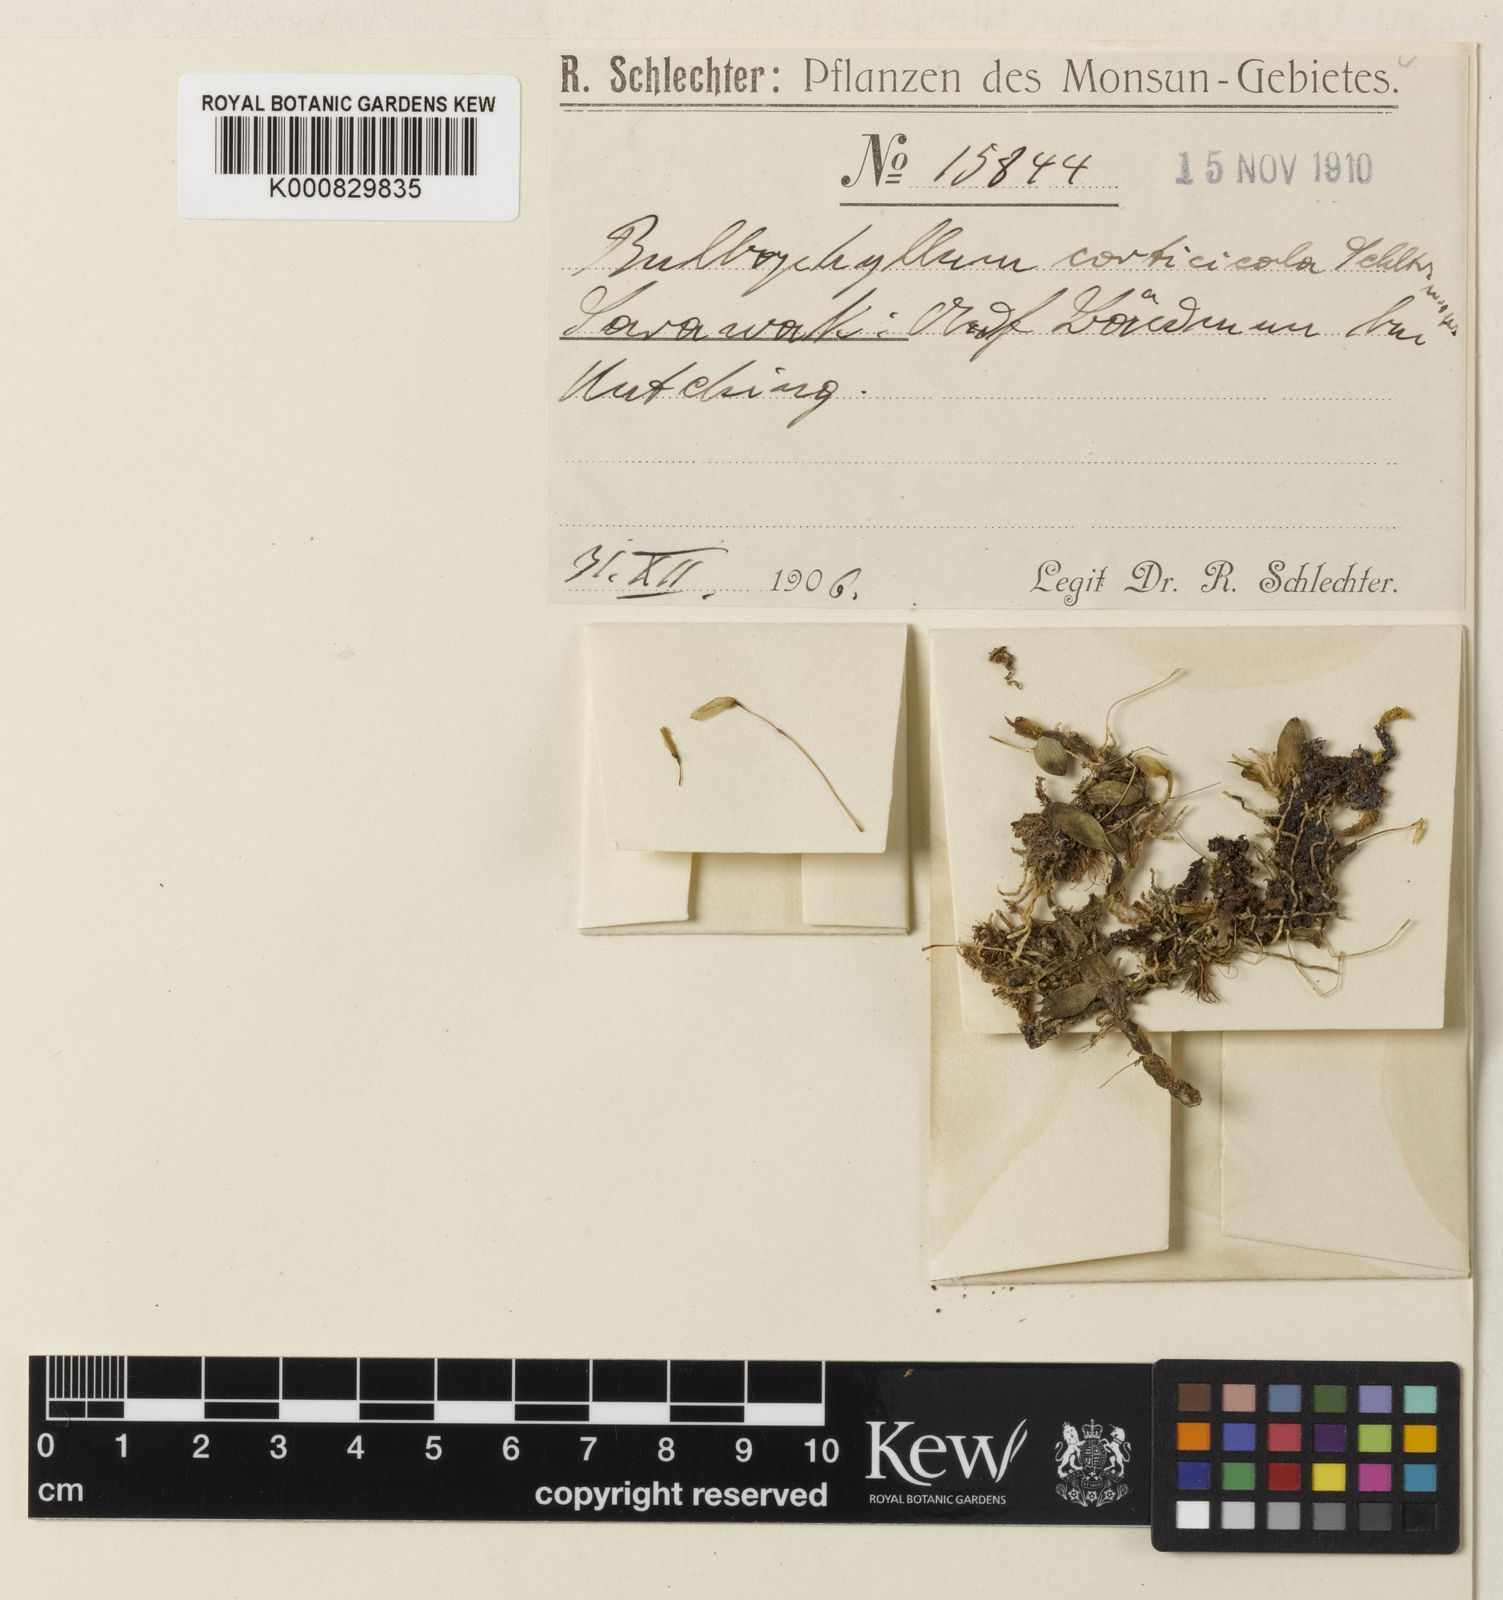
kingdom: Plantae
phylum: Tracheophyta
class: Liliopsida
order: Asparagales
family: Orchidaceae
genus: Bulbophyllum
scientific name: Bulbophyllum corticicola
